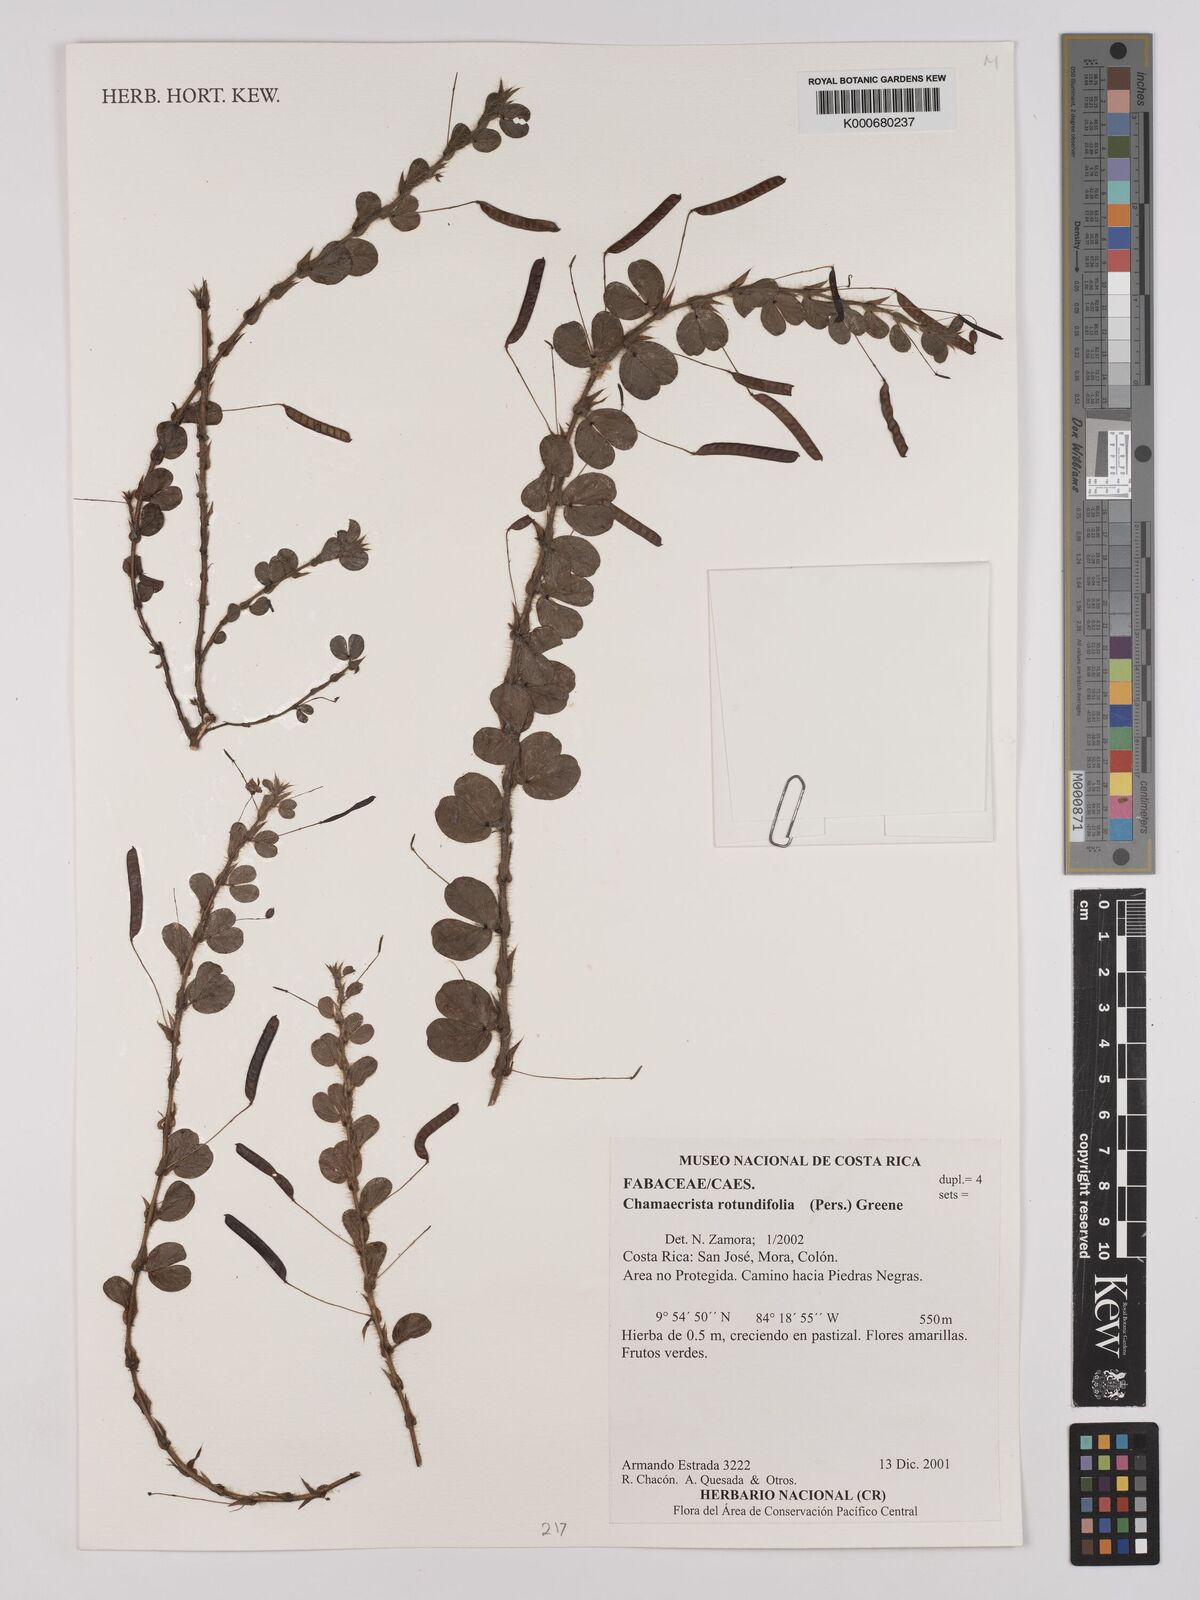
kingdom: Plantae
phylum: Tracheophyta
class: Magnoliopsida
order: Fabales
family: Fabaceae
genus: Chamaecrista
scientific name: Chamaecrista rotundifolia
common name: Round-leaf cassia
